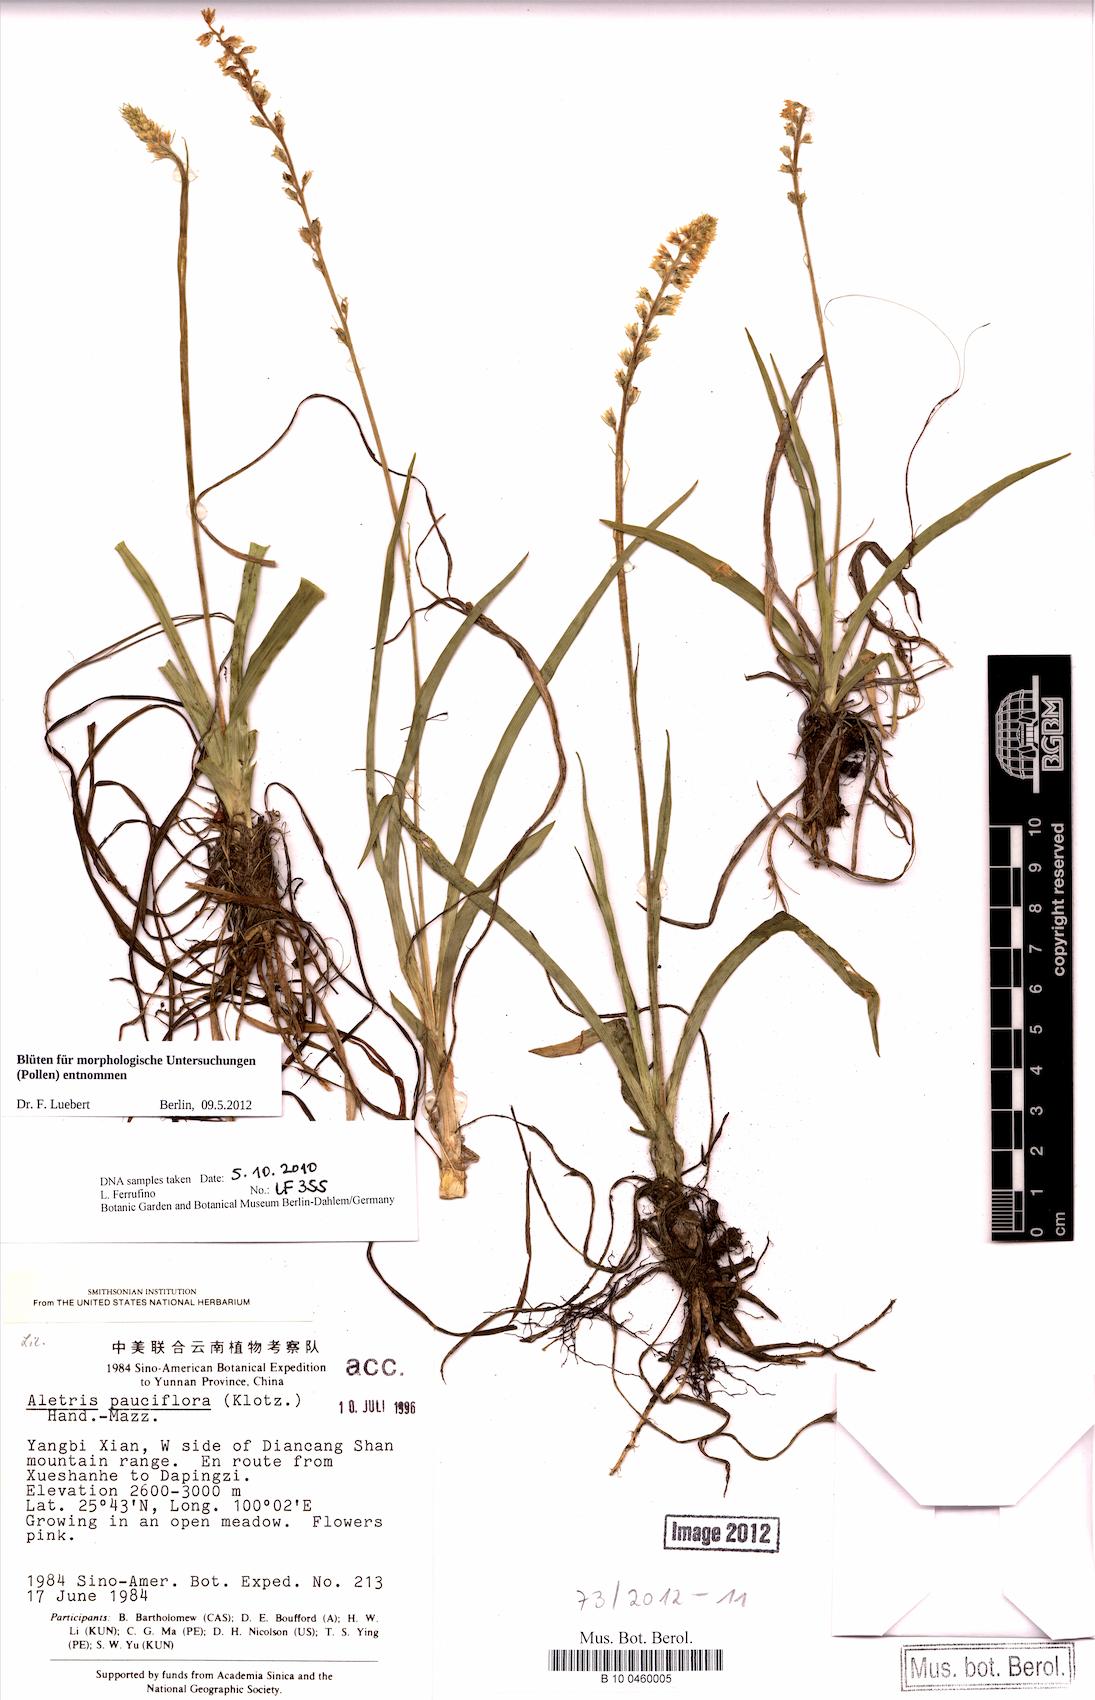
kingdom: Plantae
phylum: Tracheophyta
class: Liliopsida
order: Dioscoreales
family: Nartheciaceae
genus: Aletris
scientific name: Aletris pauciflora
